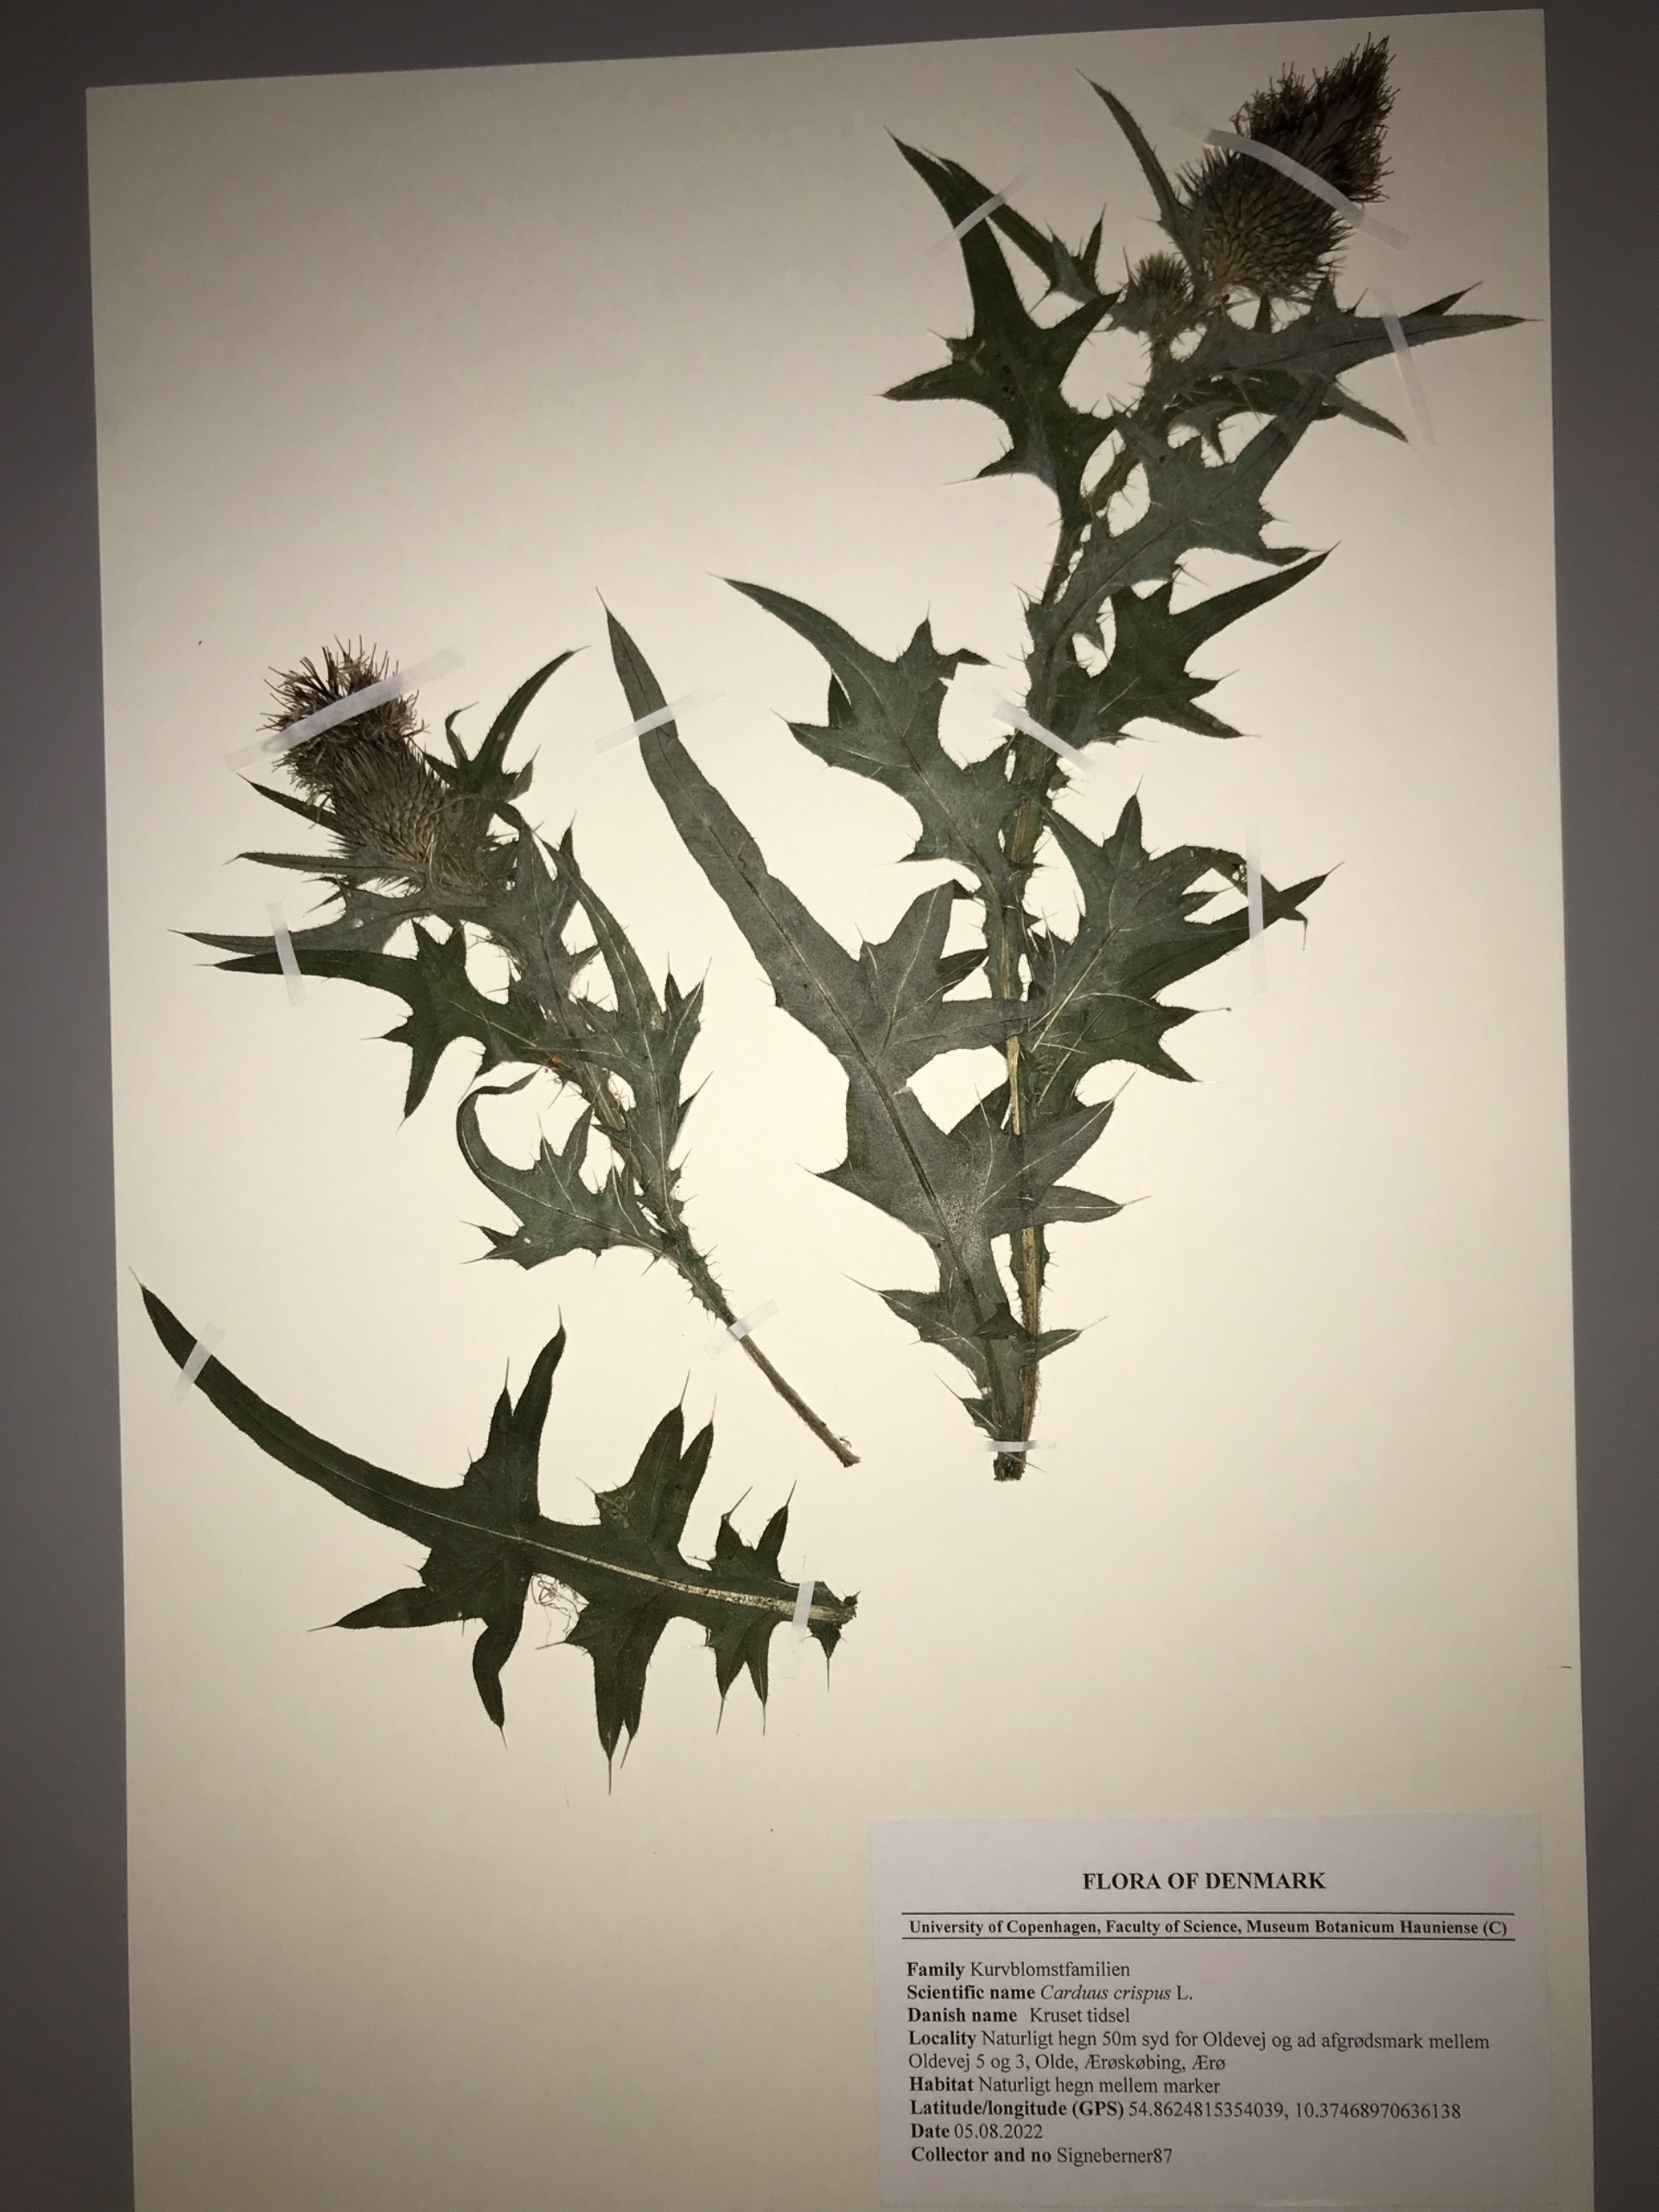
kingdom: Plantae
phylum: Tracheophyta
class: Magnoliopsida
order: Asterales
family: Asteraceae
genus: Cirsium
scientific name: Cirsium vulgare
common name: Horse-tidsel
